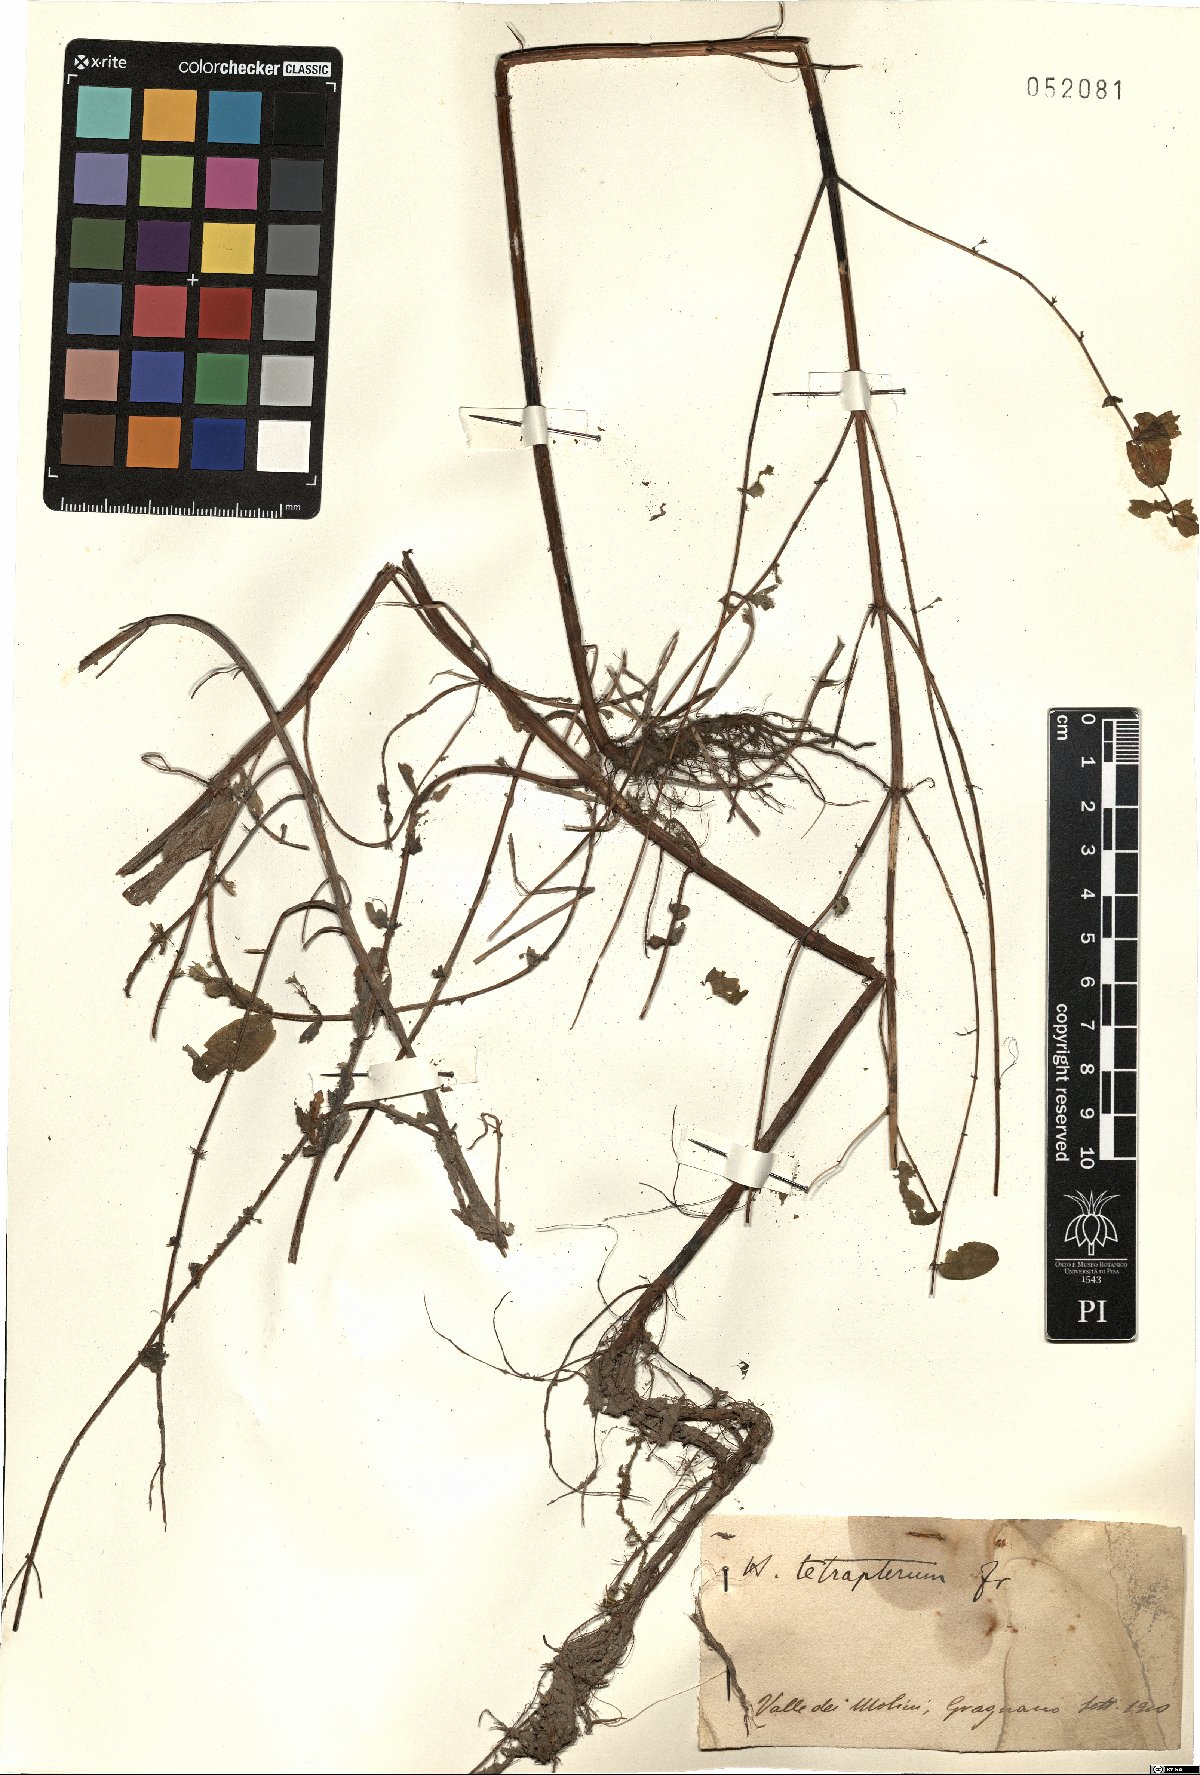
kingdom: Plantae
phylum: Tracheophyta
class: Magnoliopsida
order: Malpighiales
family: Hypericaceae
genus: Hypericum
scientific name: Hypericum tetrapterum
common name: Square-stalked st. john's-wort
